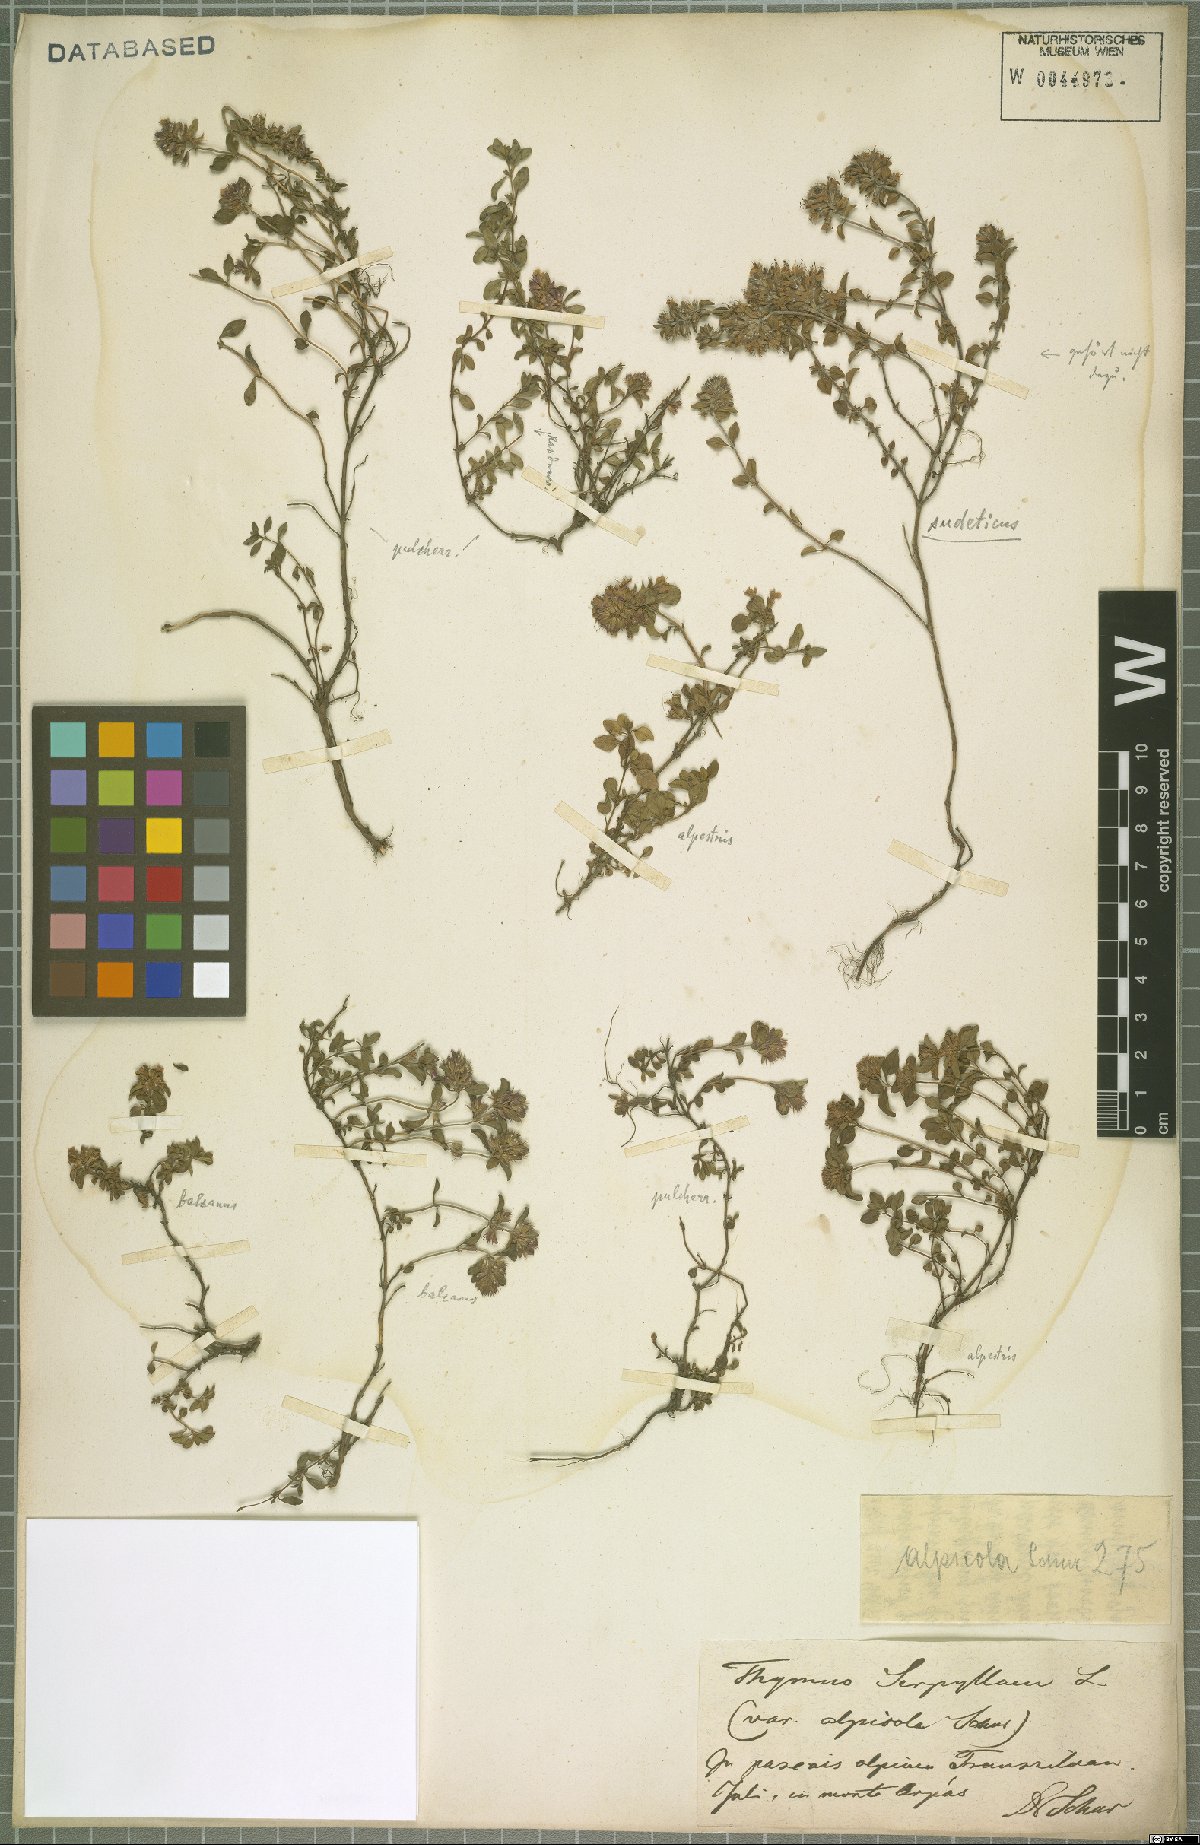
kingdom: Plantae
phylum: Tracheophyta
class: Magnoliopsida
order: Lamiales
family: Lamiaceae
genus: Thymus
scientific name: Thymus praecox
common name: Wild thyme
